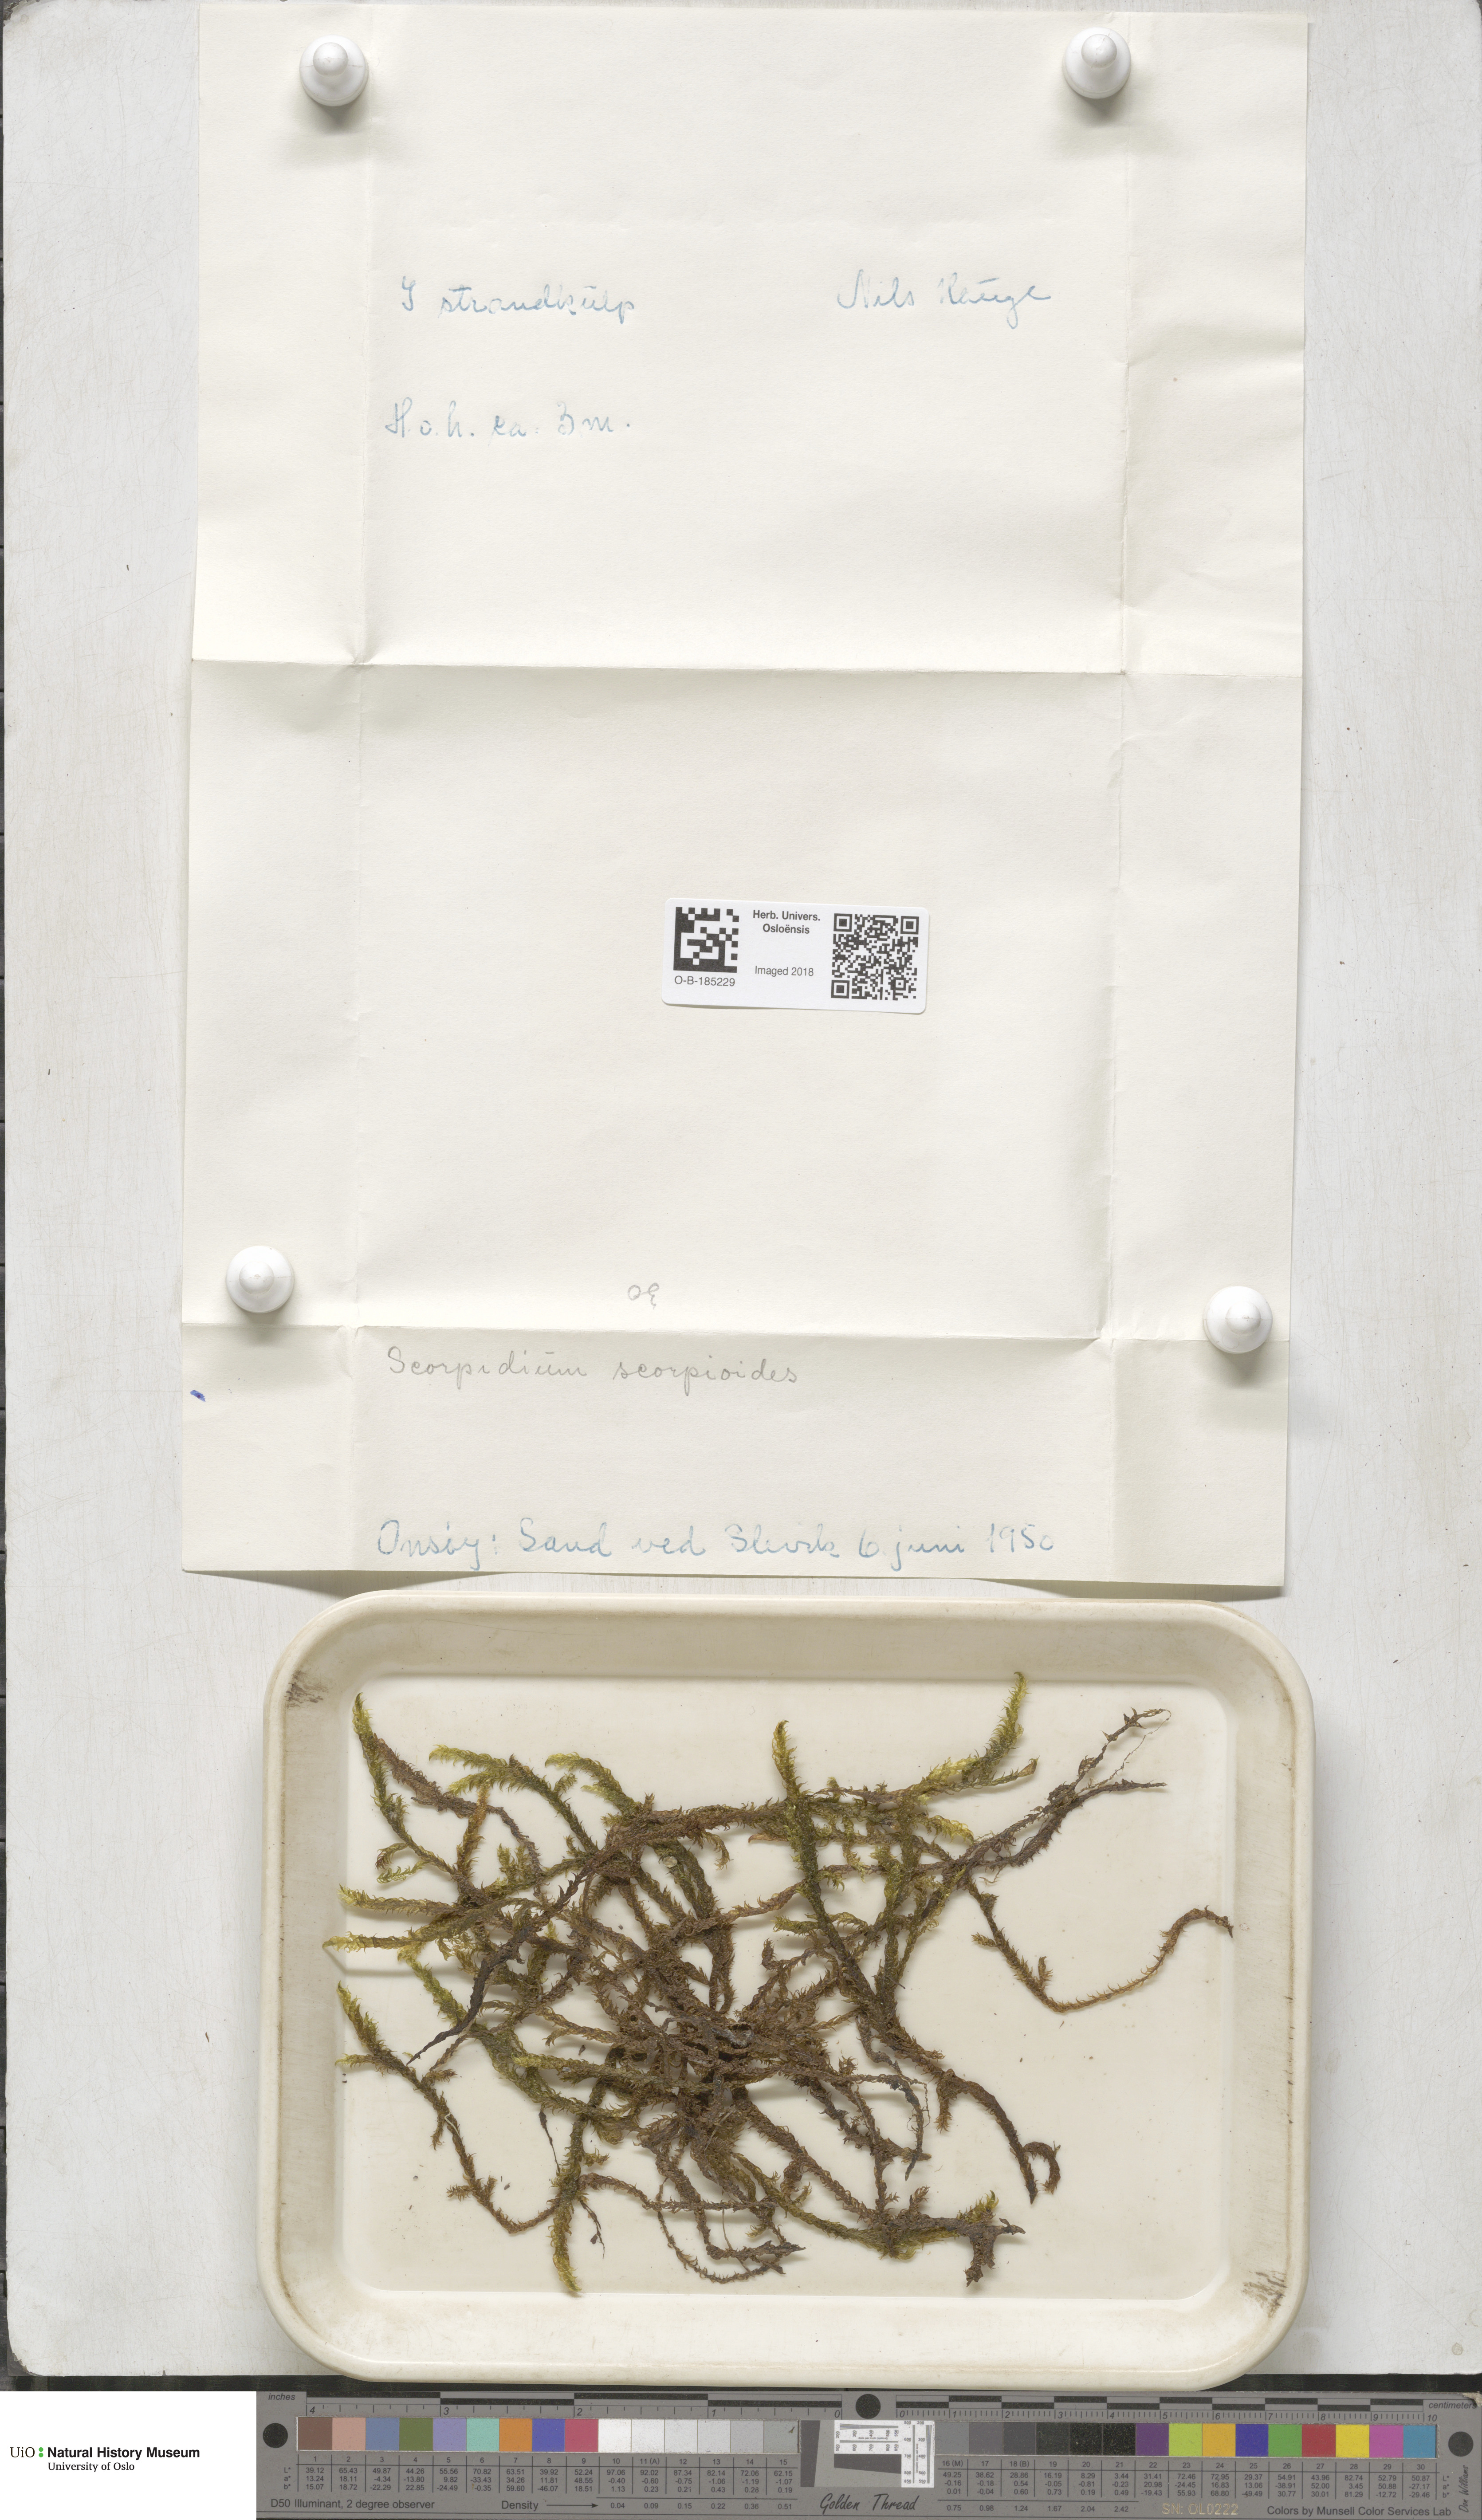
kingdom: Plantae
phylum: Bryophyta
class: Bryopsida
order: Hypnales
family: Scorpidiaceae
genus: Scorpidium
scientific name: Scorpidium scorpioides
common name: Hooked scorpion moss
